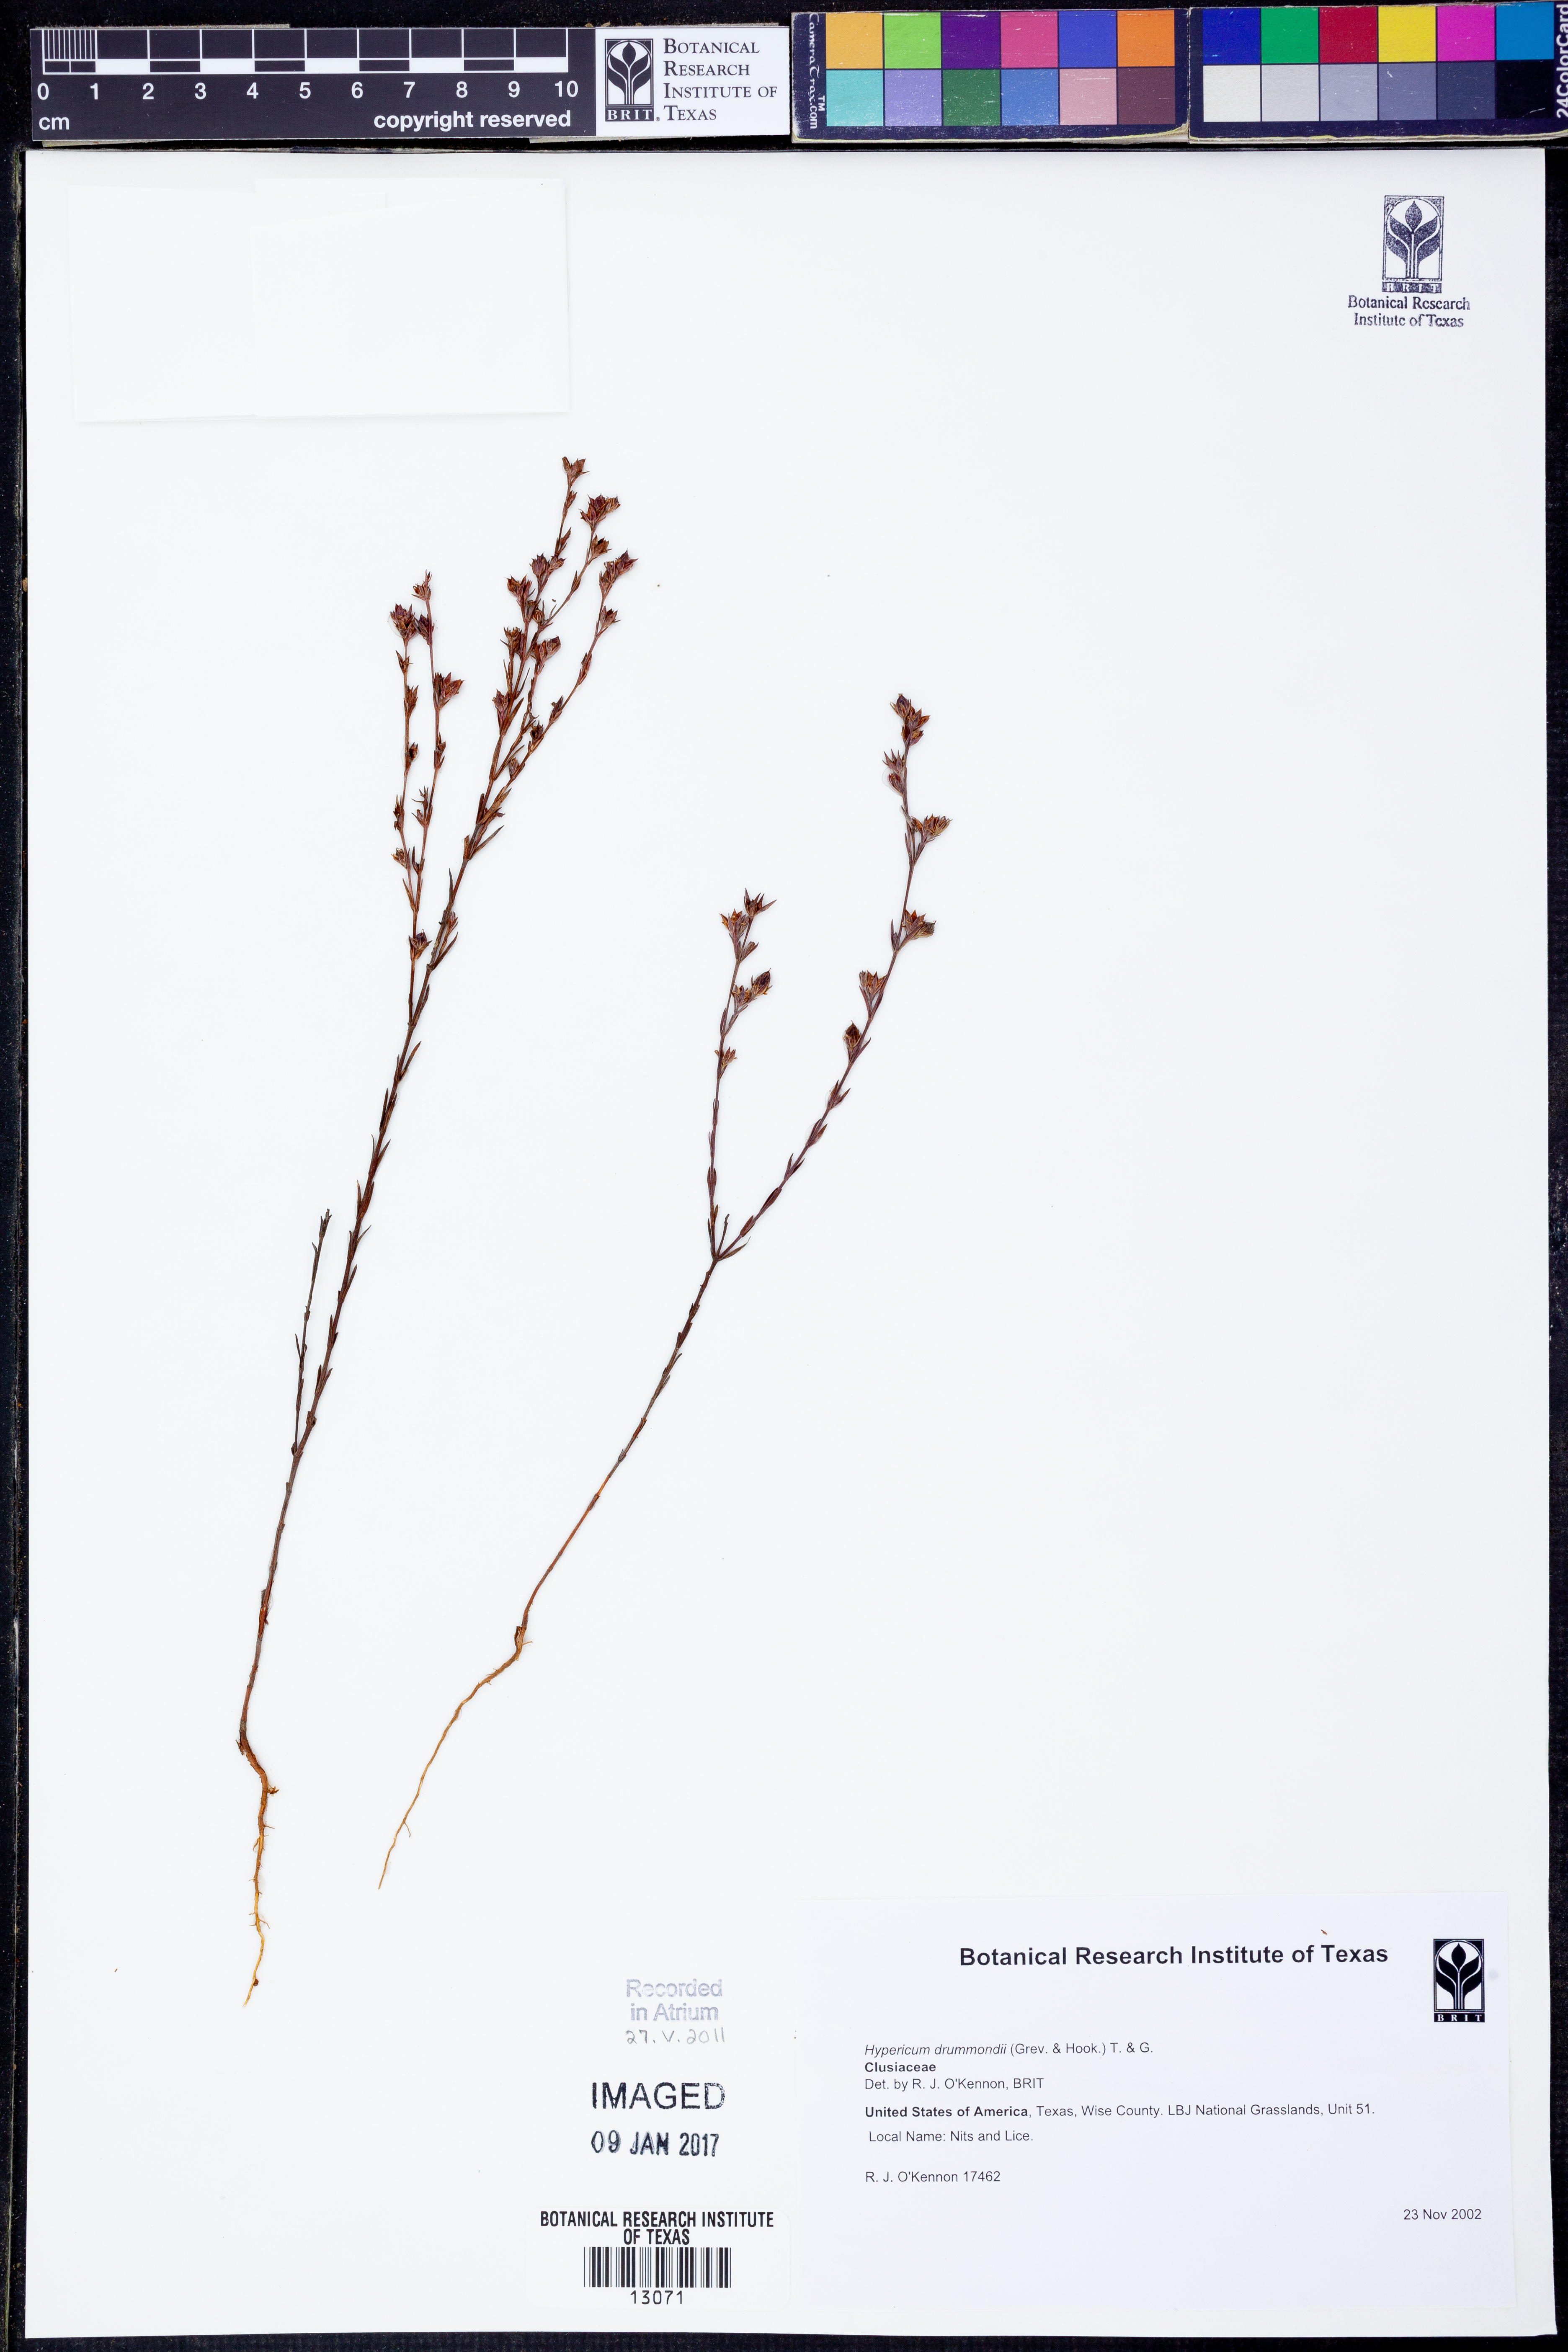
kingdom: Plantae
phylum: Tracheophyta
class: Magnoliopsida
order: Malpighiales
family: Hypericaceae
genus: Hypericum
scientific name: Hypericum drummondii
